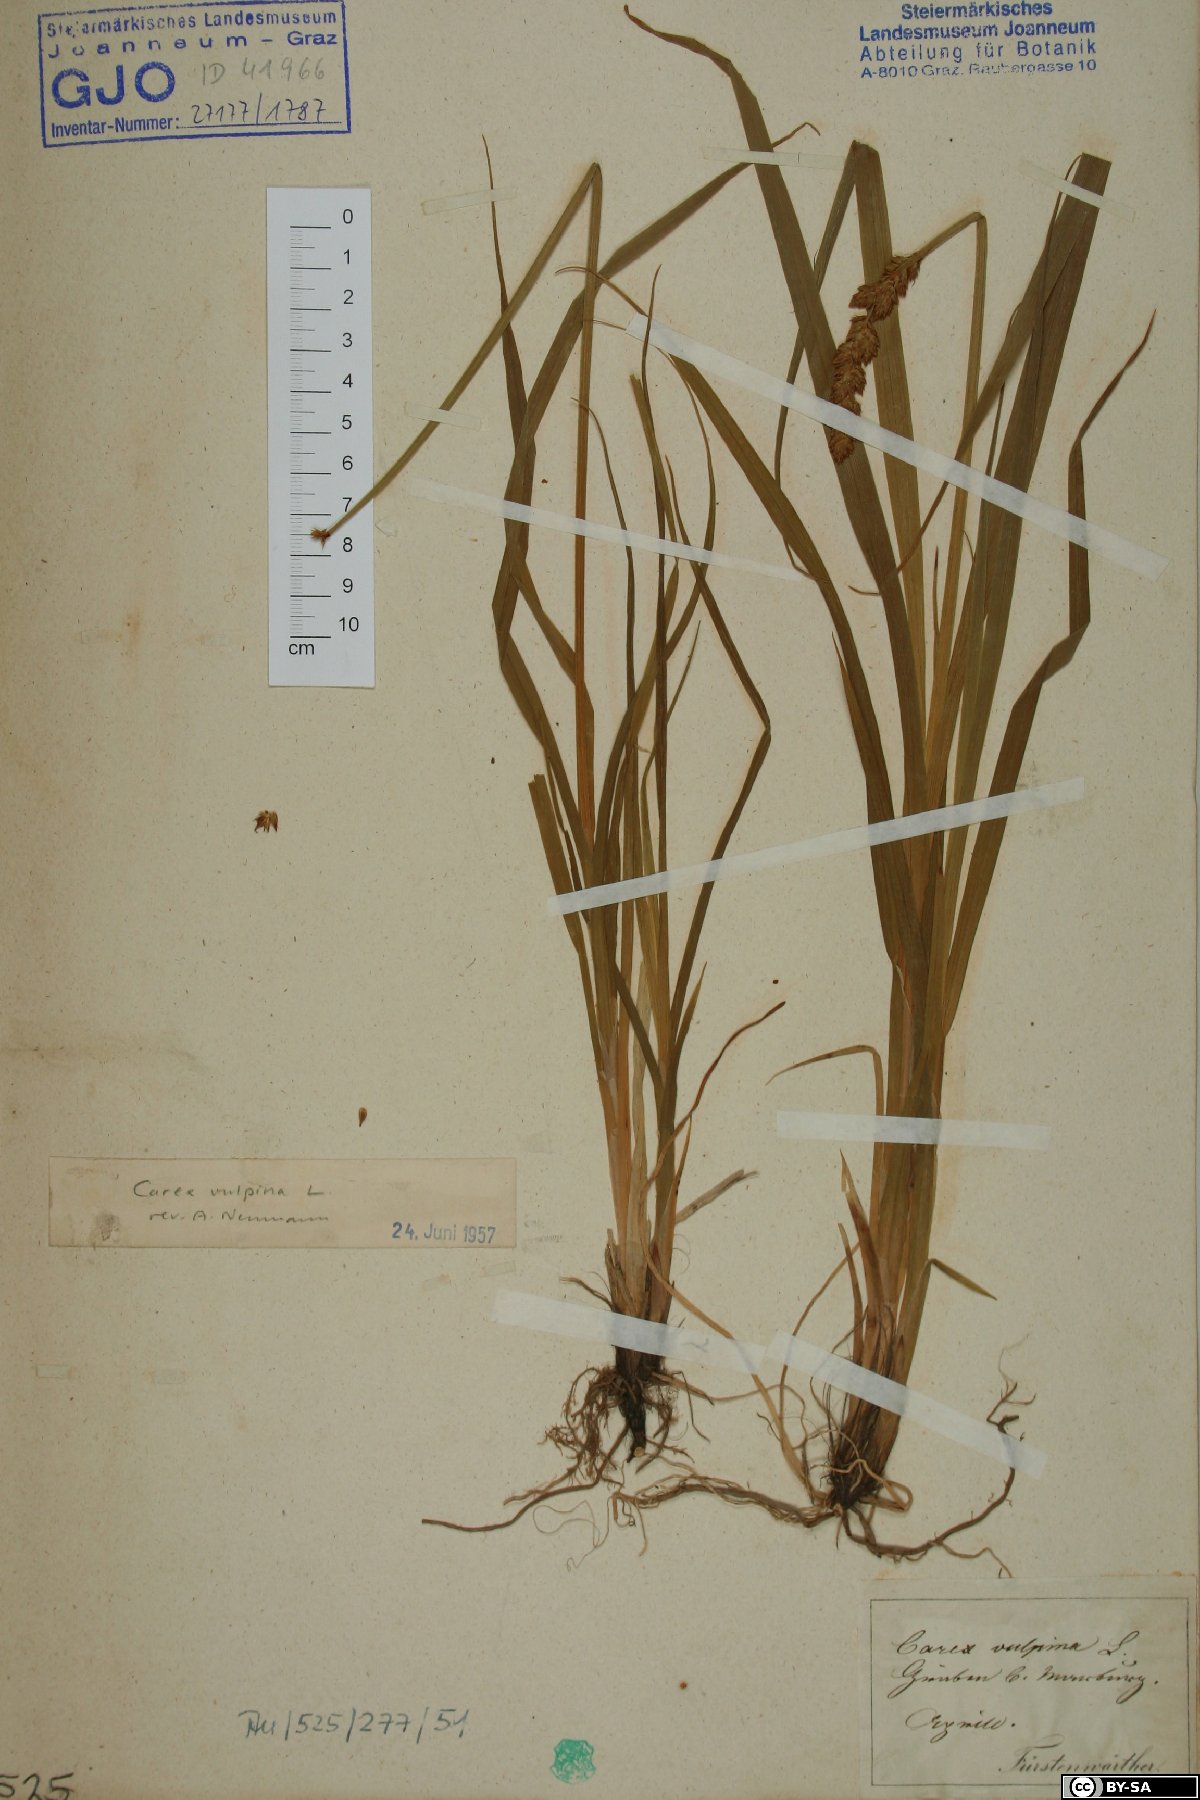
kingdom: Plantae
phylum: Tracheophyta
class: Liliopsida
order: Poales
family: Cyperaceae
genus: Carex
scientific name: Carex vulpina
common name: True fox-sedge
